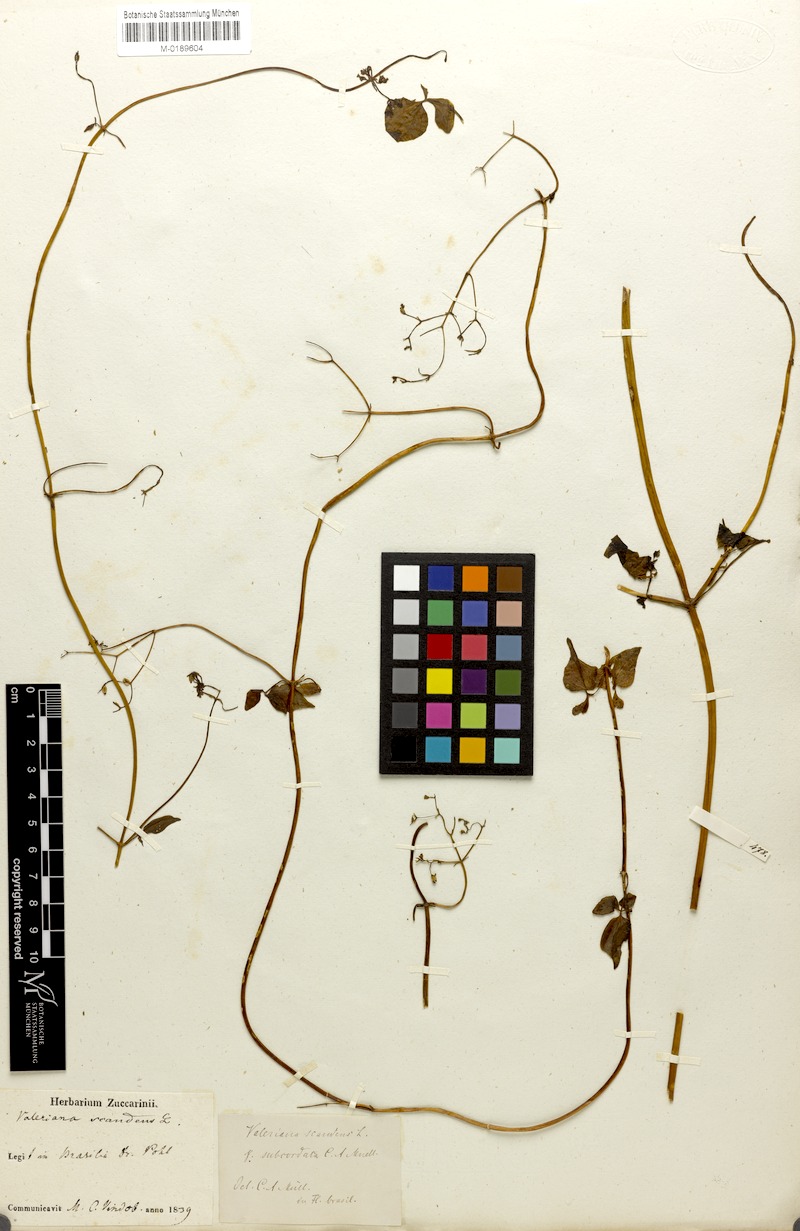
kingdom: Plantae
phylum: Tracheophyta
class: Magnoliopsida
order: Dipsacales
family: Caprifoliaceae
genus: Valeriana
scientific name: Valeriana scandens
